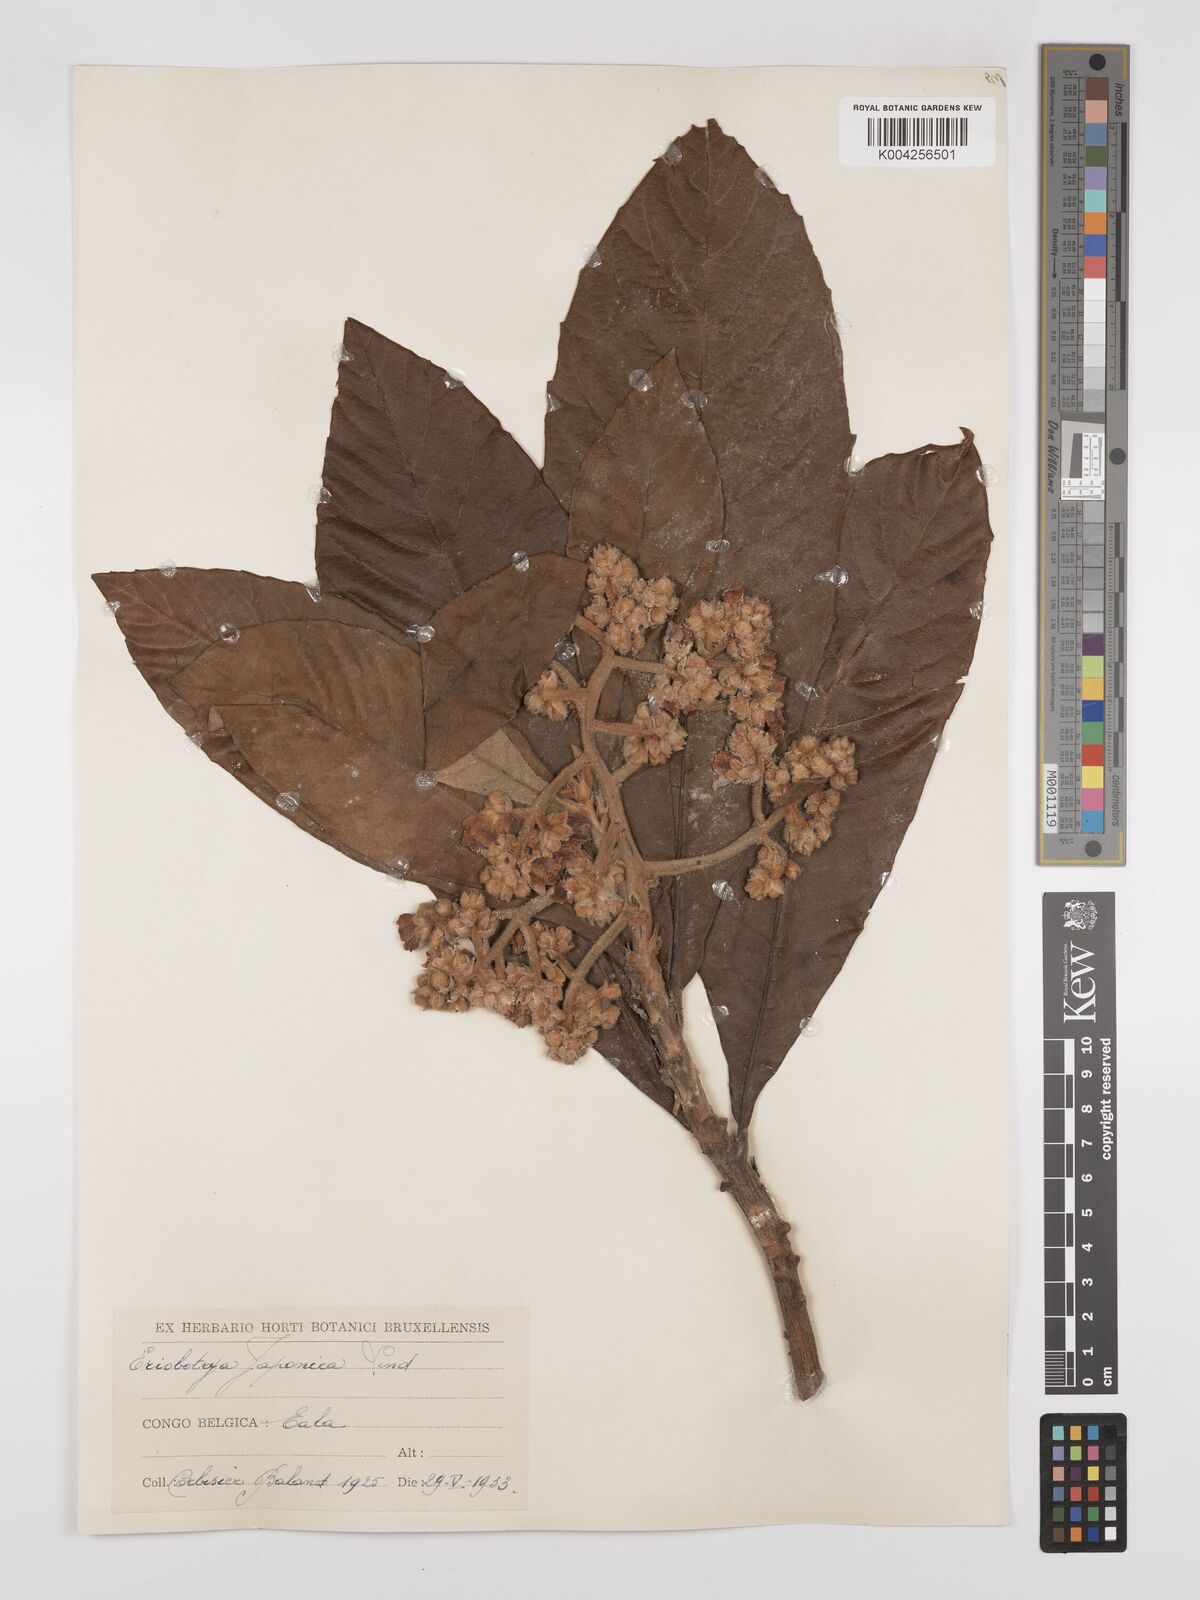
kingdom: Plantae
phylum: Tracheophyta
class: Magnoliopsida
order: Rosales
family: Rosaceae
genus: Rhaphiolepis
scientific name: Rhaphiolepis bibas
